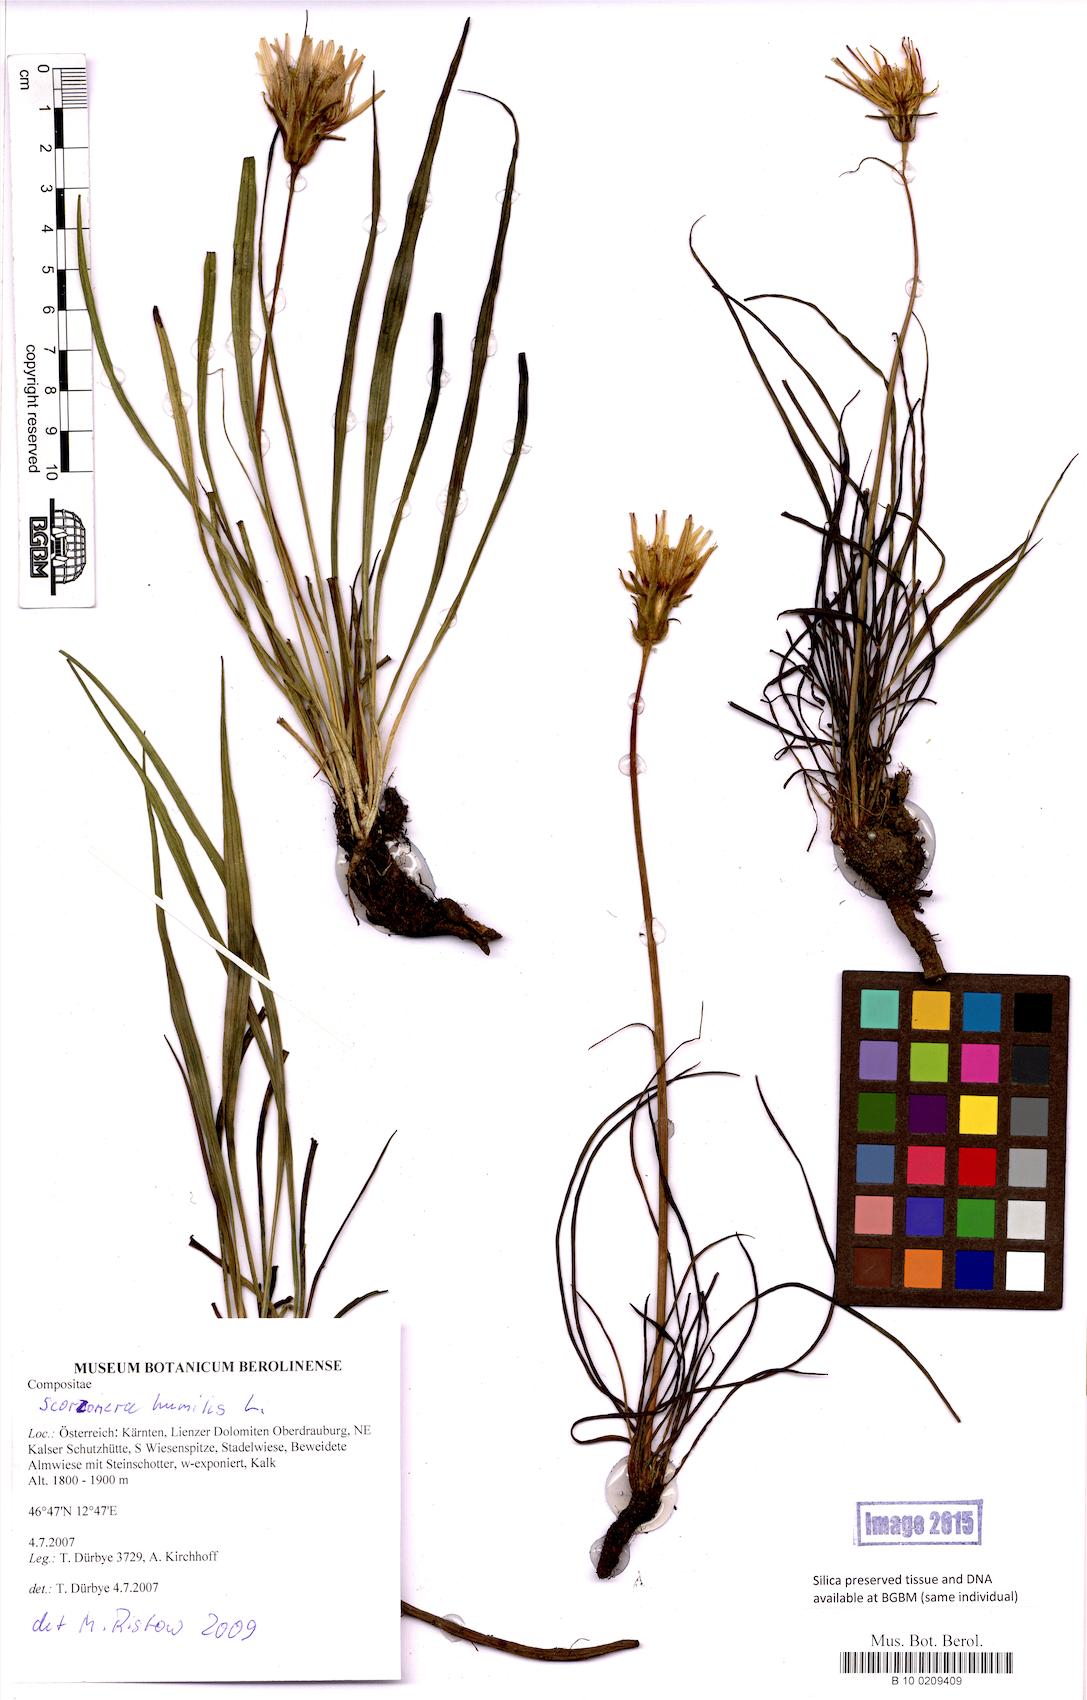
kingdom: Plantae
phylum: Tracheophyta
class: Magnoliopsida
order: Asterales
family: Asteraceae
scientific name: Asteraceae
